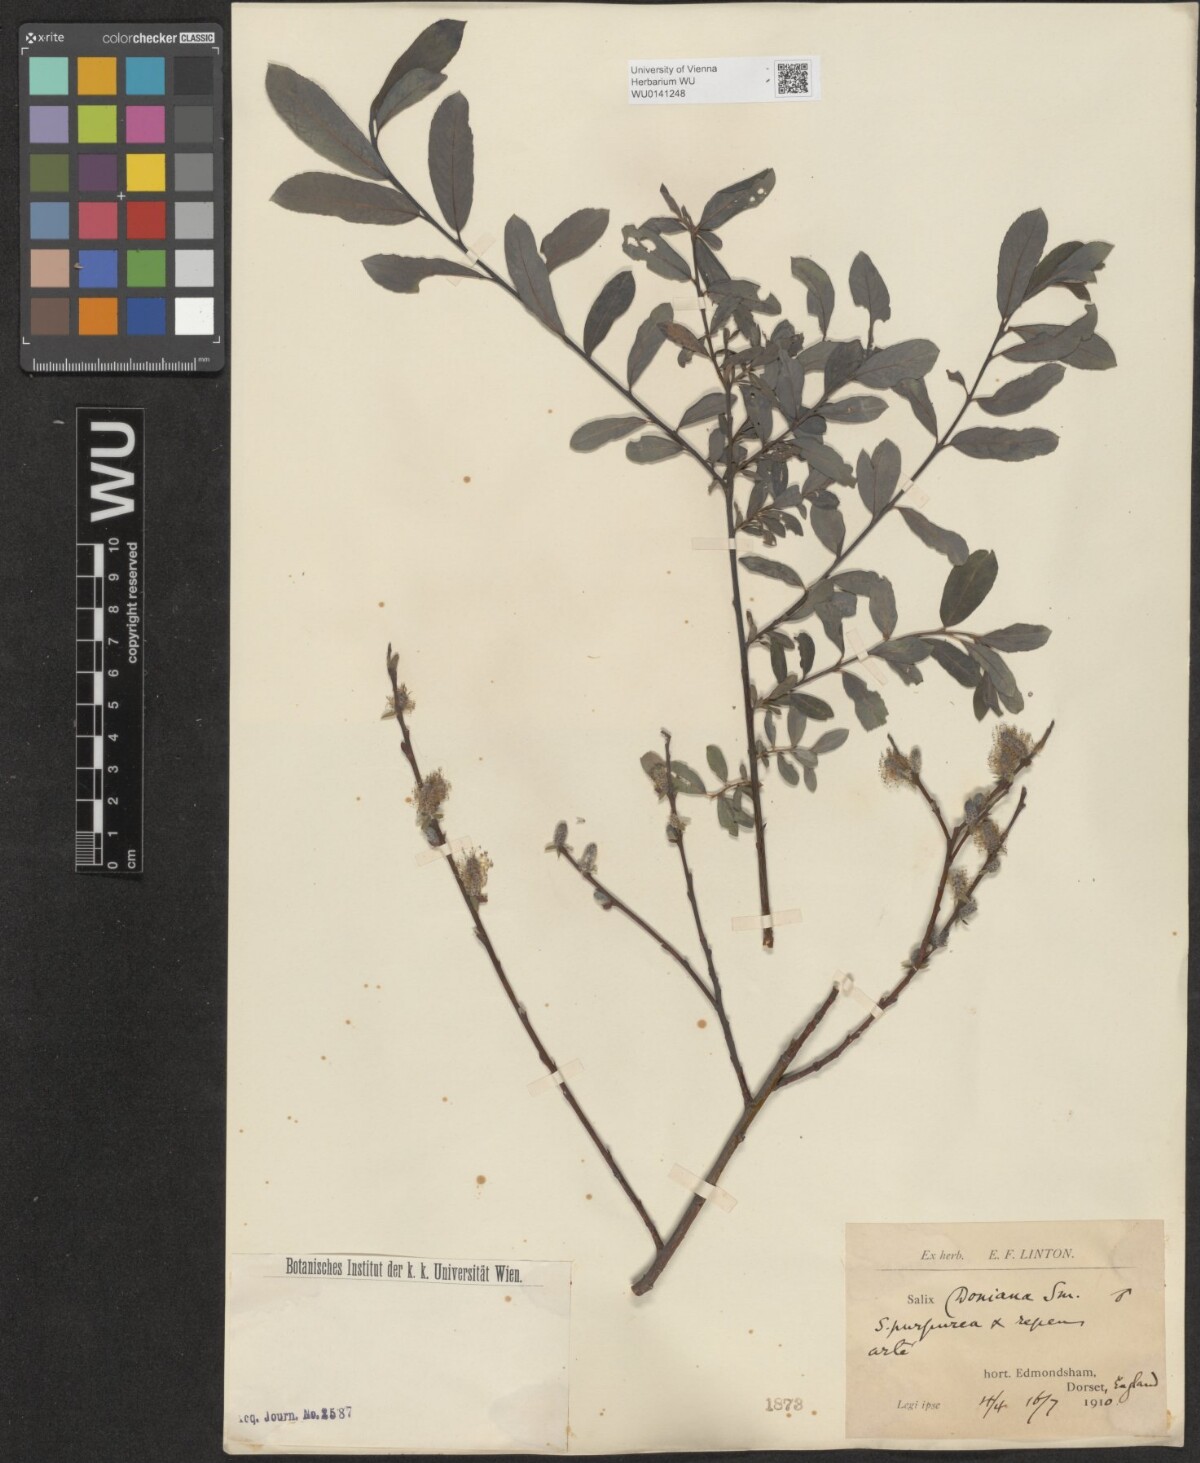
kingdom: Plantae
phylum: Tracheophyta
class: Magnoliopsida
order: Malpighiales
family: Salicaceae
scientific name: Salicaceae
